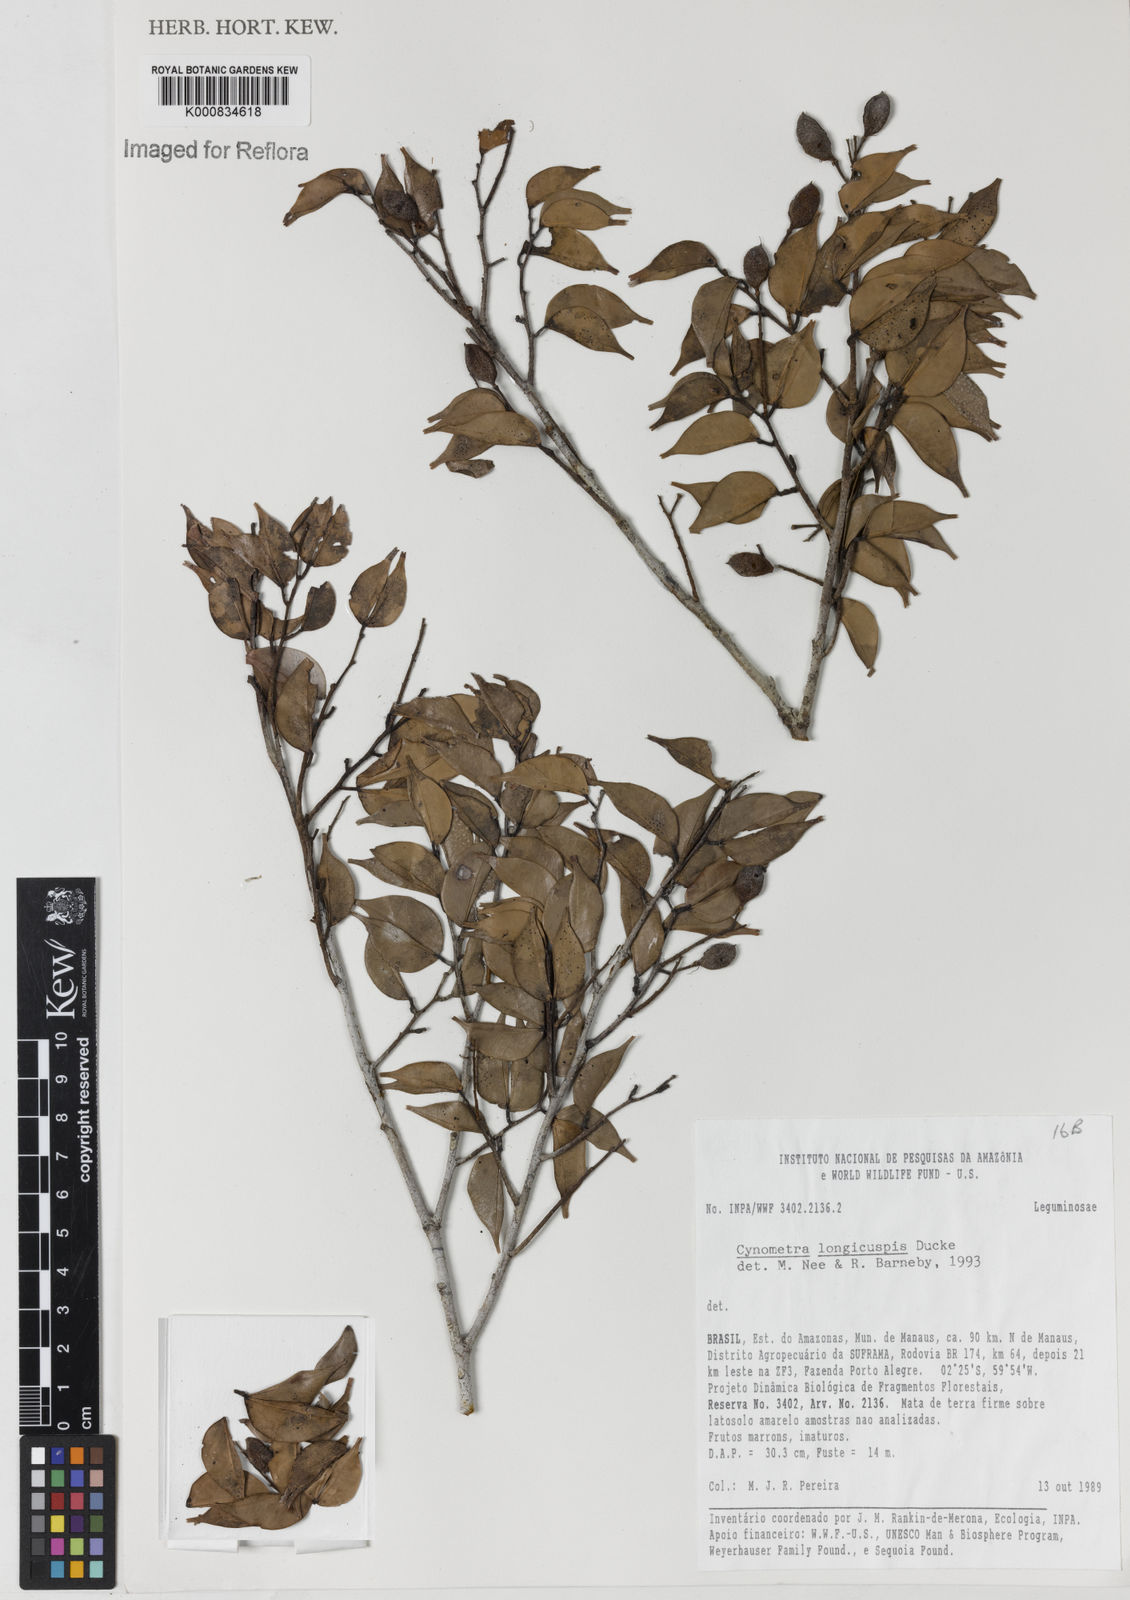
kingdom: Plantae
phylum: Tracheophyta
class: Magnoliopsida
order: Fabales
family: Fabaceae
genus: Cynometra
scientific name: Cynometra longicuspis
